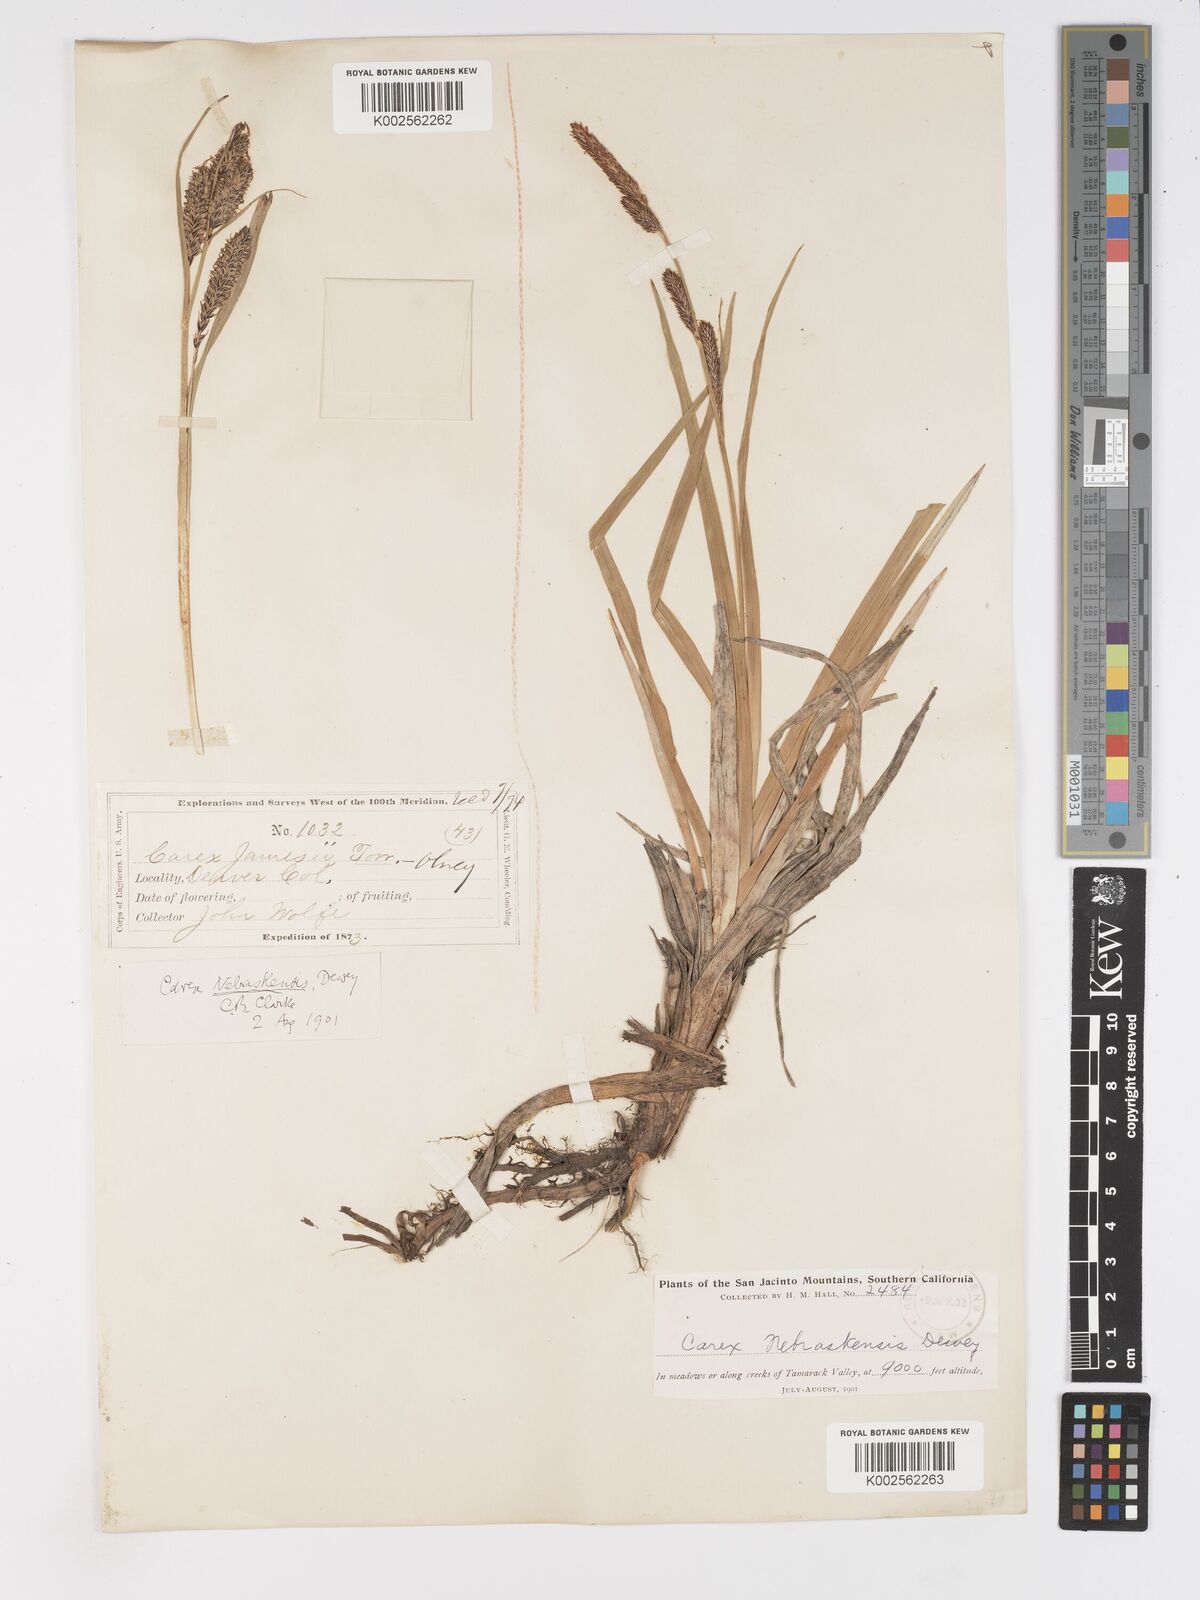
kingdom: Plantae
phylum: Tracheophyta
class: Liliopsida
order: Poales
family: Cyperaceae
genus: Carex
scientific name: Carex nebrascensis
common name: Nebraska sedge
